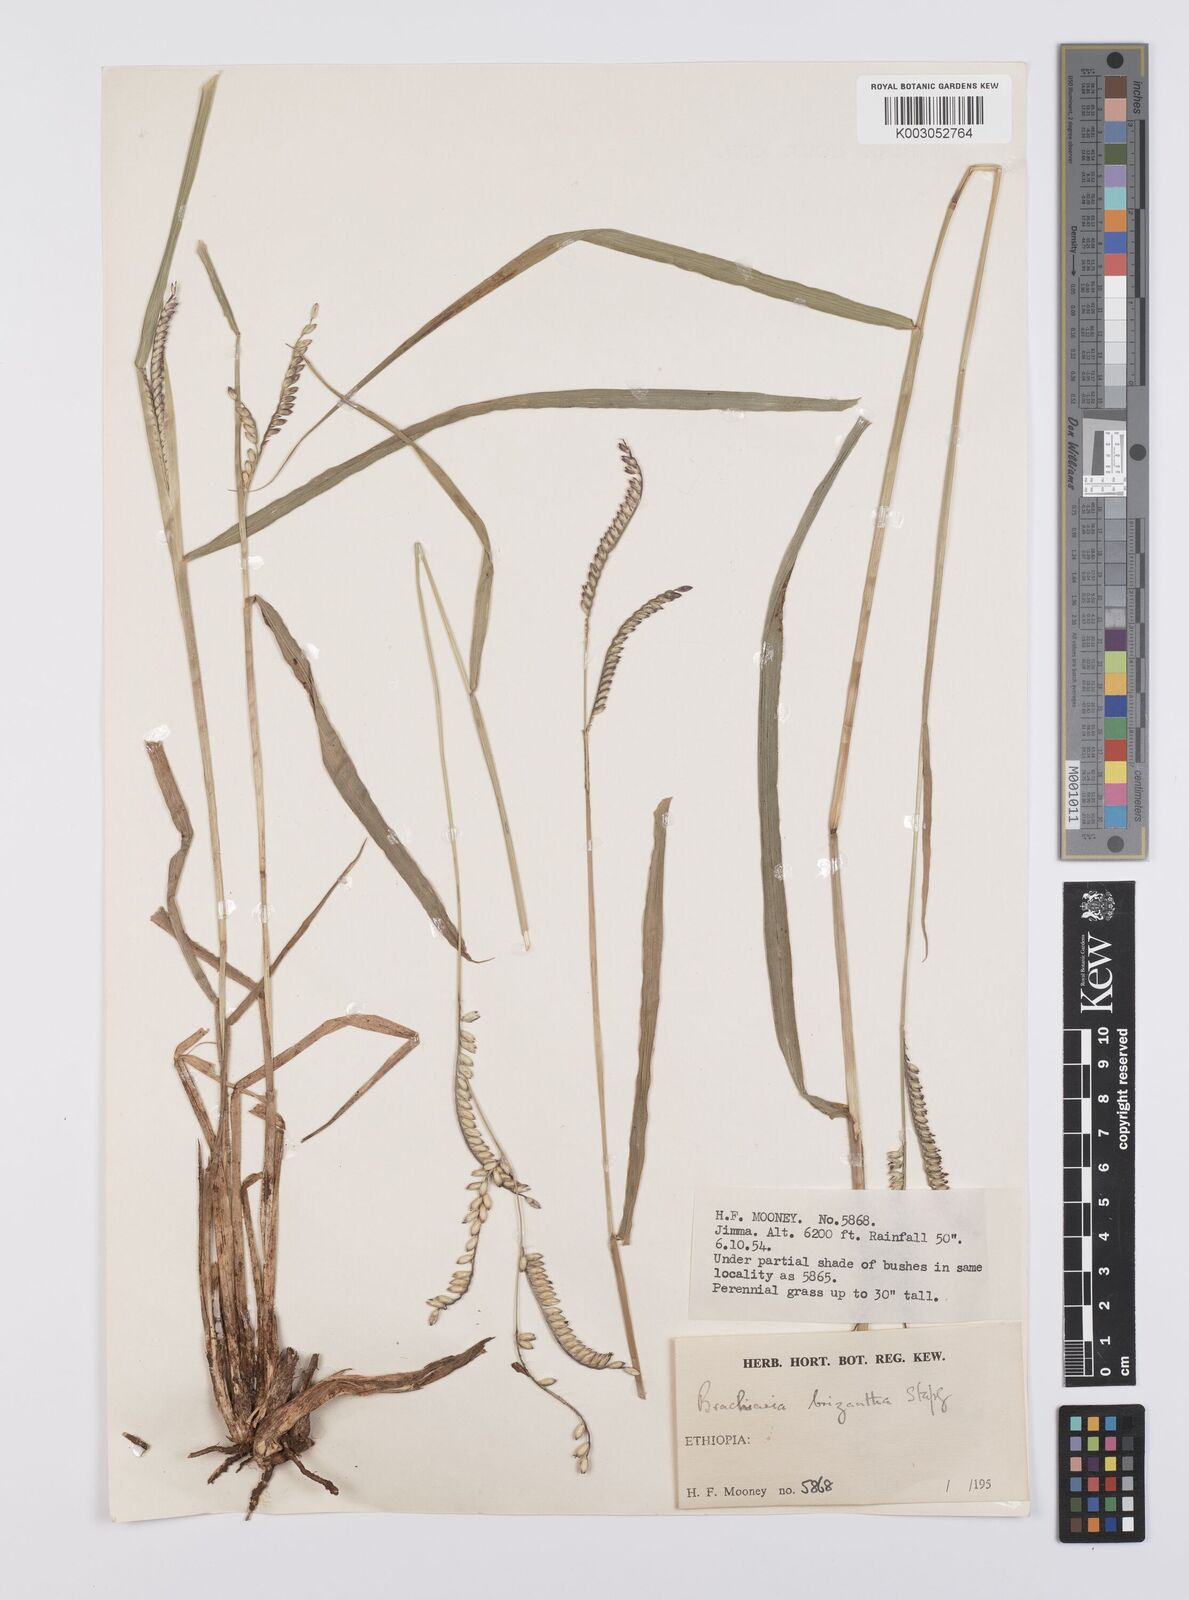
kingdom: Plantae
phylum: Tracheophyta
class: Liliopsida
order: Poales
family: Poaceae
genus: Urochloa
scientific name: Urochloa brizantha
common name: Palisade signalgrass
